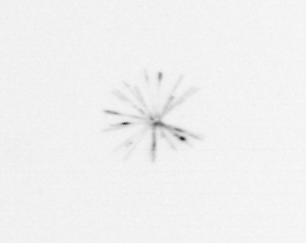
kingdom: Chromista
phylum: Ochrophyta
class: Bacillariophyceae
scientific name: Bacillariophyceae
